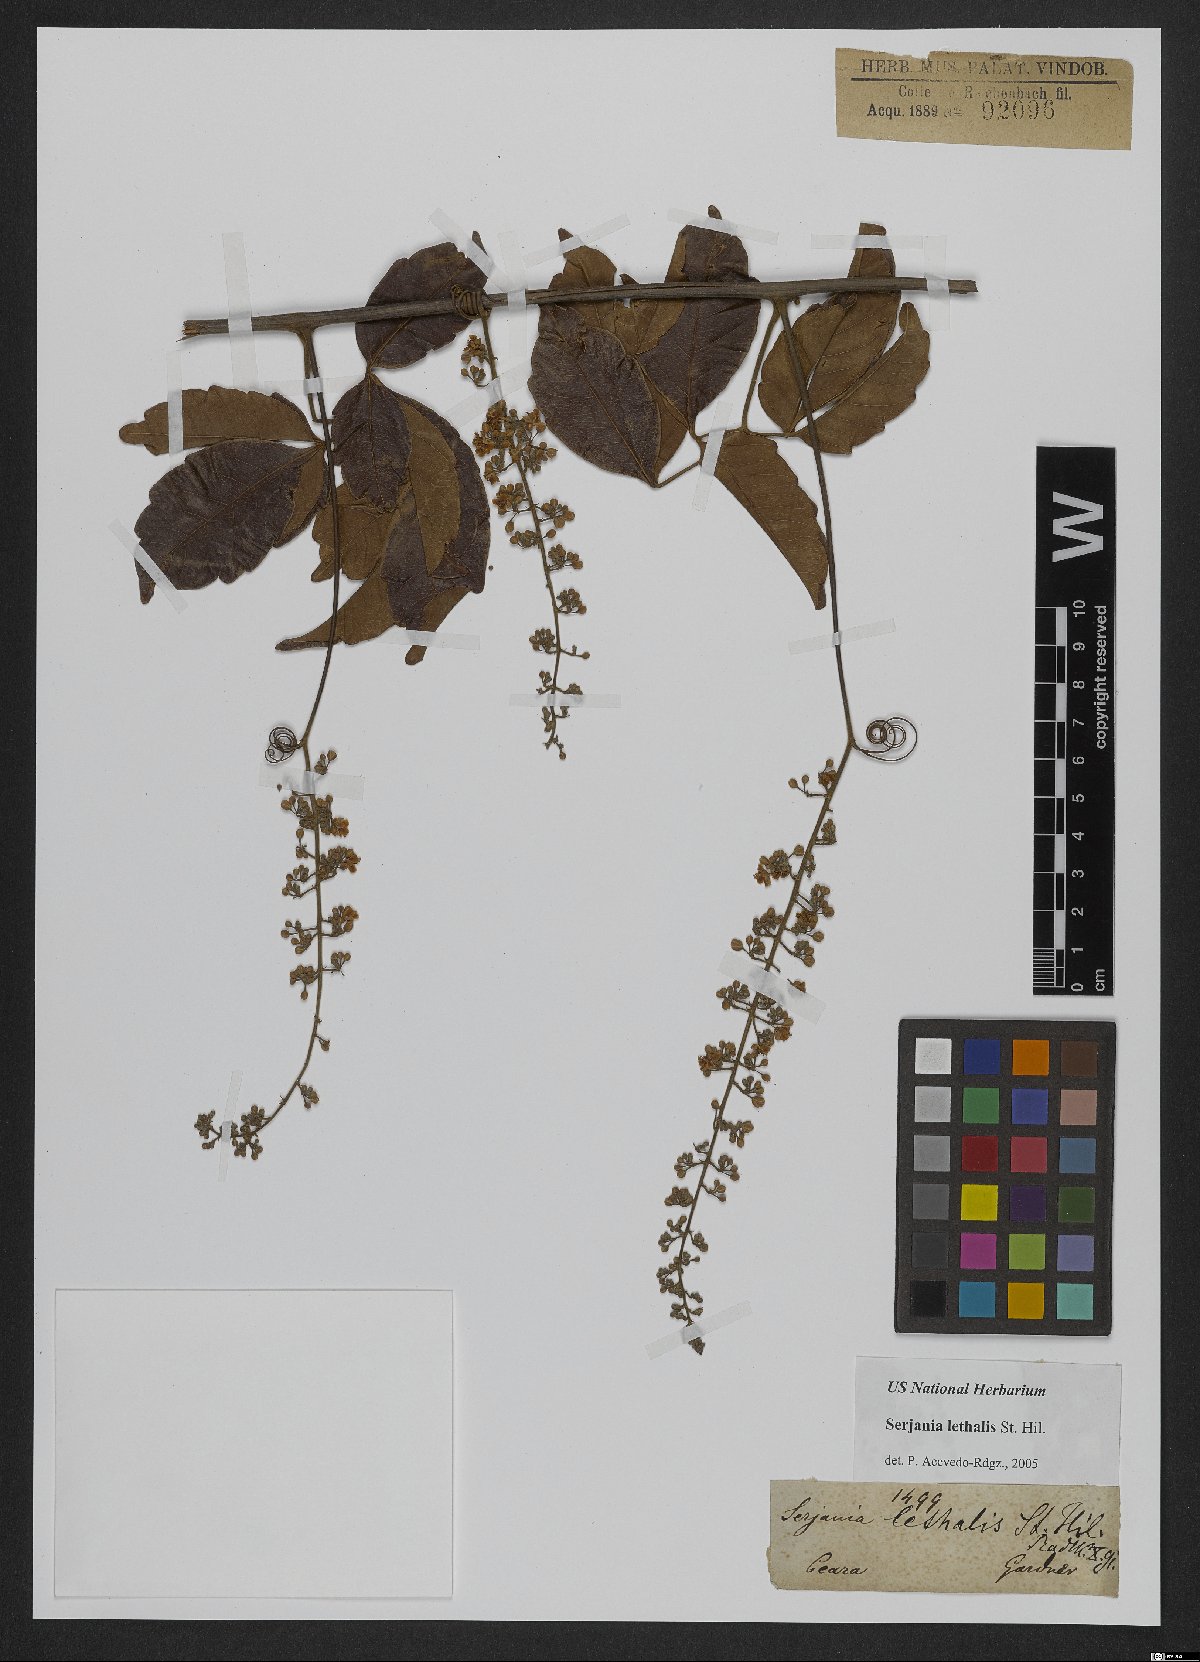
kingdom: Plantae
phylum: Tracheophyta
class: Magnoliopsida
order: Sapindales
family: Sapindaceae
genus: Serjania
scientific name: Serjania lethalis
